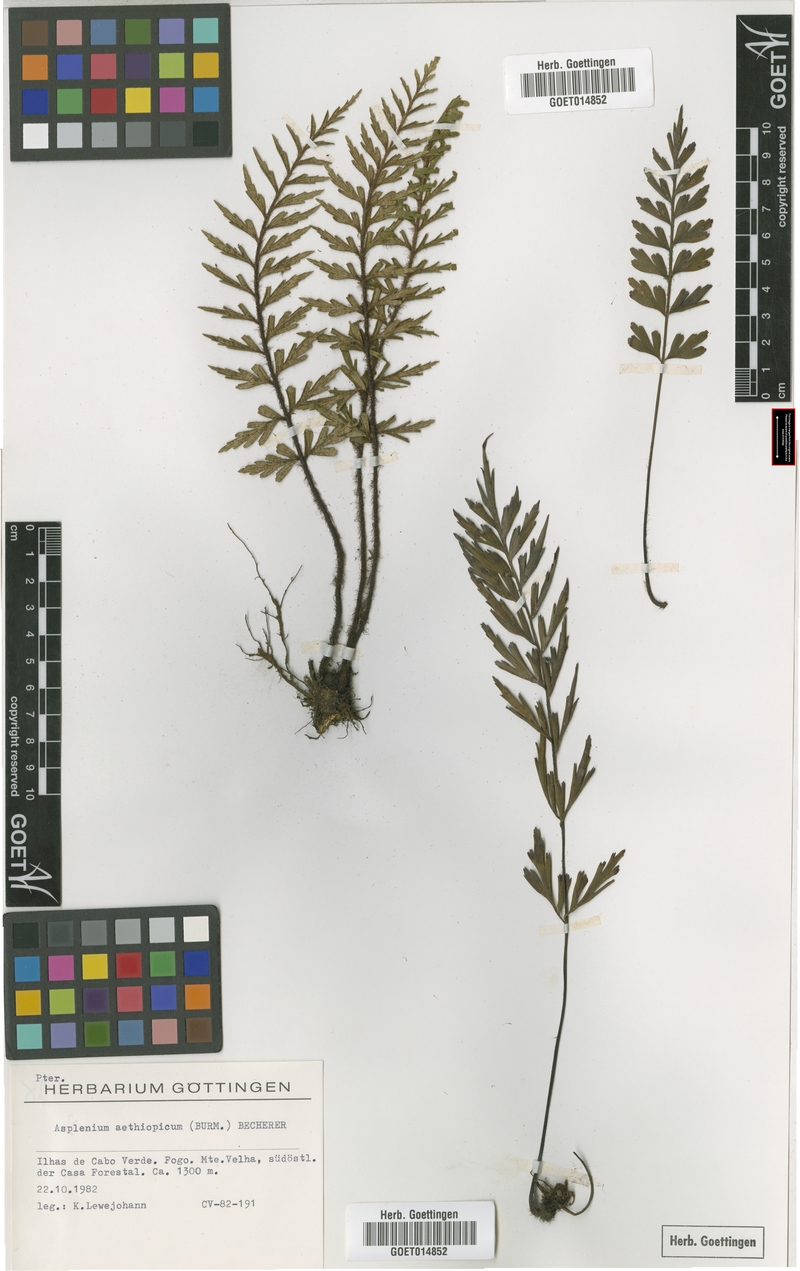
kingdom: Plantae
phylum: Tracheophyta
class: Polypodiopsida
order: Polypodiales
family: Aspleniaceae
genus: Asplenium
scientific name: Asplenium aethiopicum
